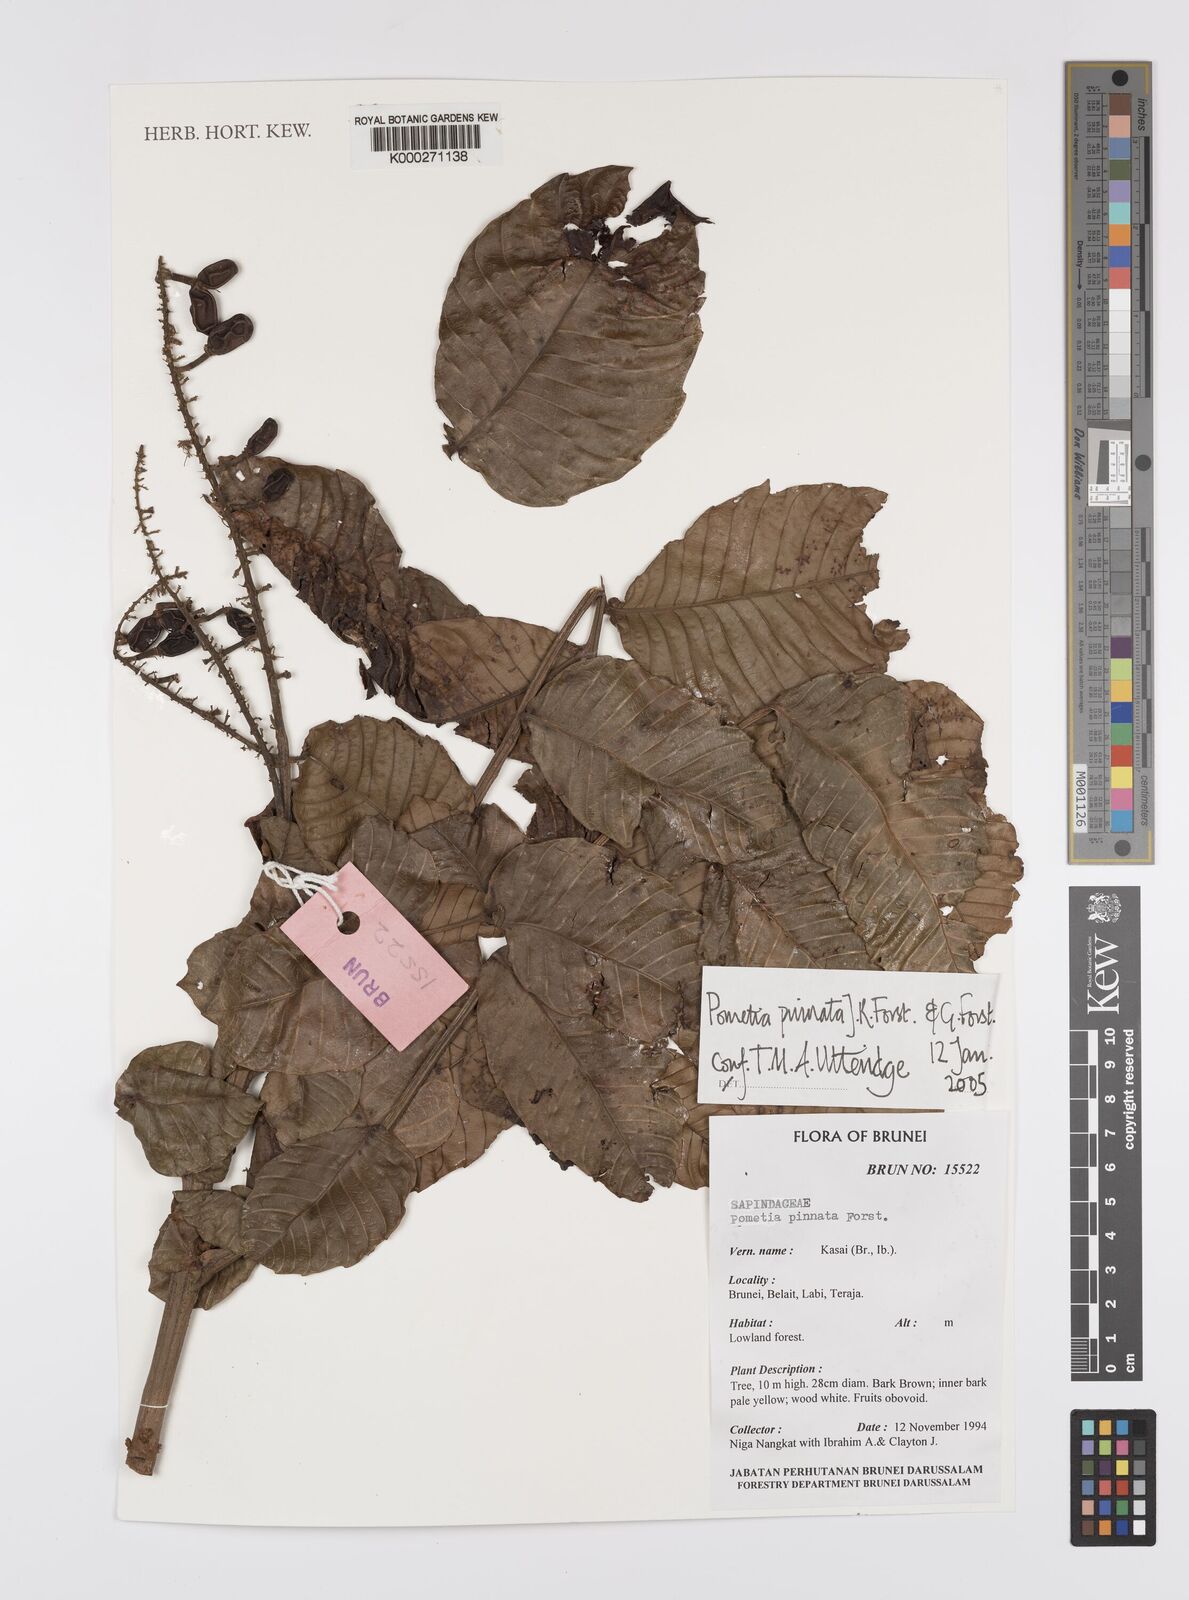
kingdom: Plantae
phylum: Tracheophyta
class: Magnoliopsida
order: Sapindales
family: Sapindaceae
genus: Pometia
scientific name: Pometia pinnata
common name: Oceanic lychee
